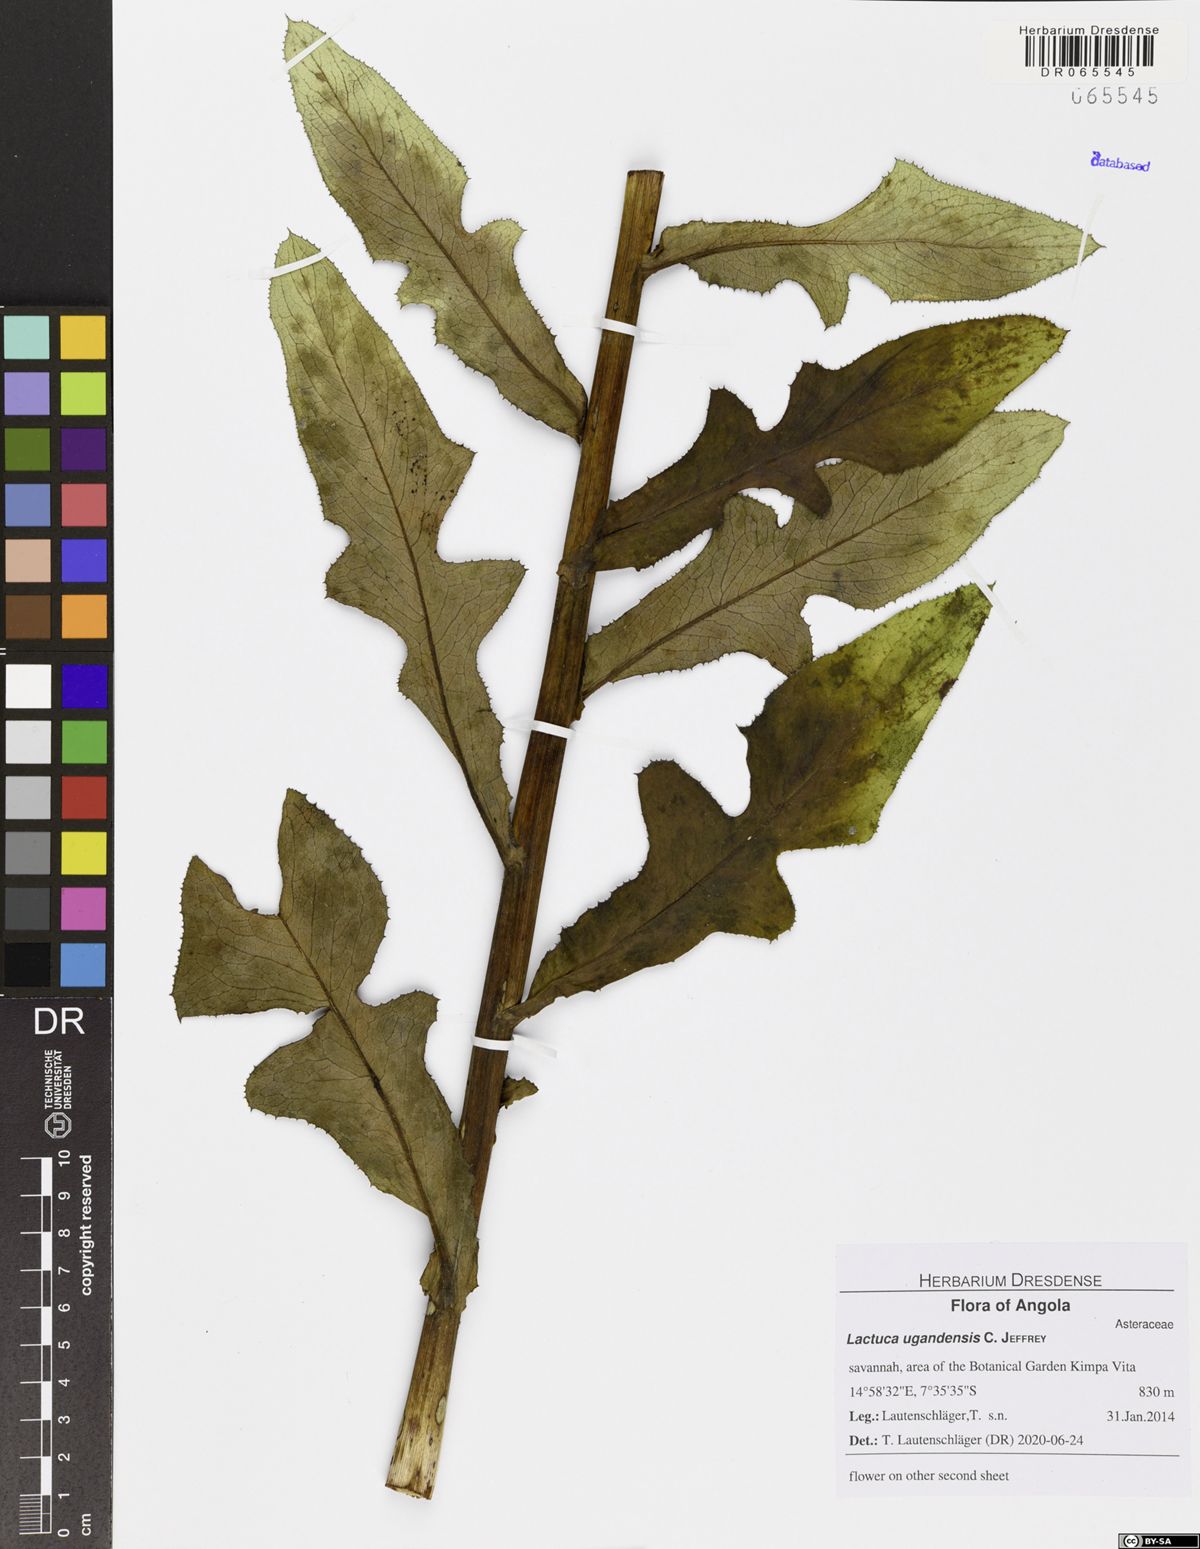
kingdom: Plantae
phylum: Tracheophyta
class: Magnoliopsida
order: Asterales
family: Asteraceae
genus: Lactuca
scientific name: Lactuca schulzeana
